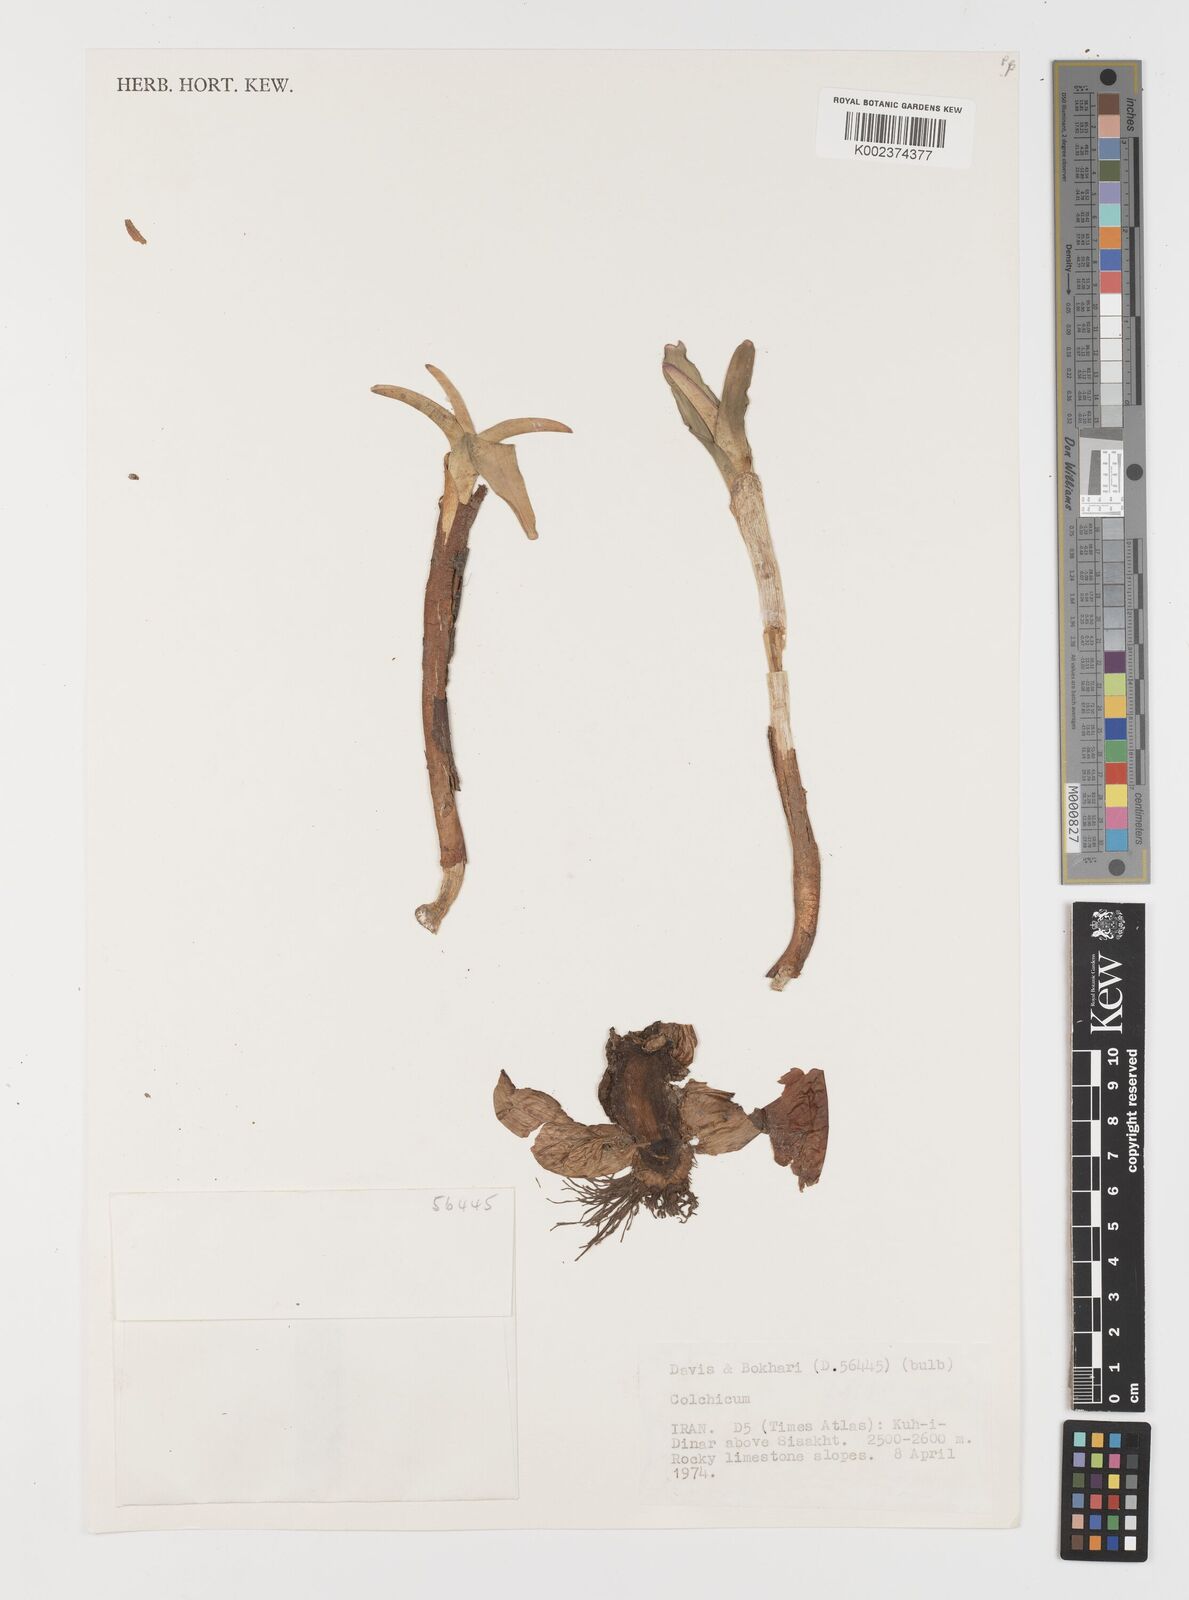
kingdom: Plantae
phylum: Tracheophyta
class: Liliopsida
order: Liliales
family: Colchicaceae
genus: Colchicum
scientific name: Colchicum
